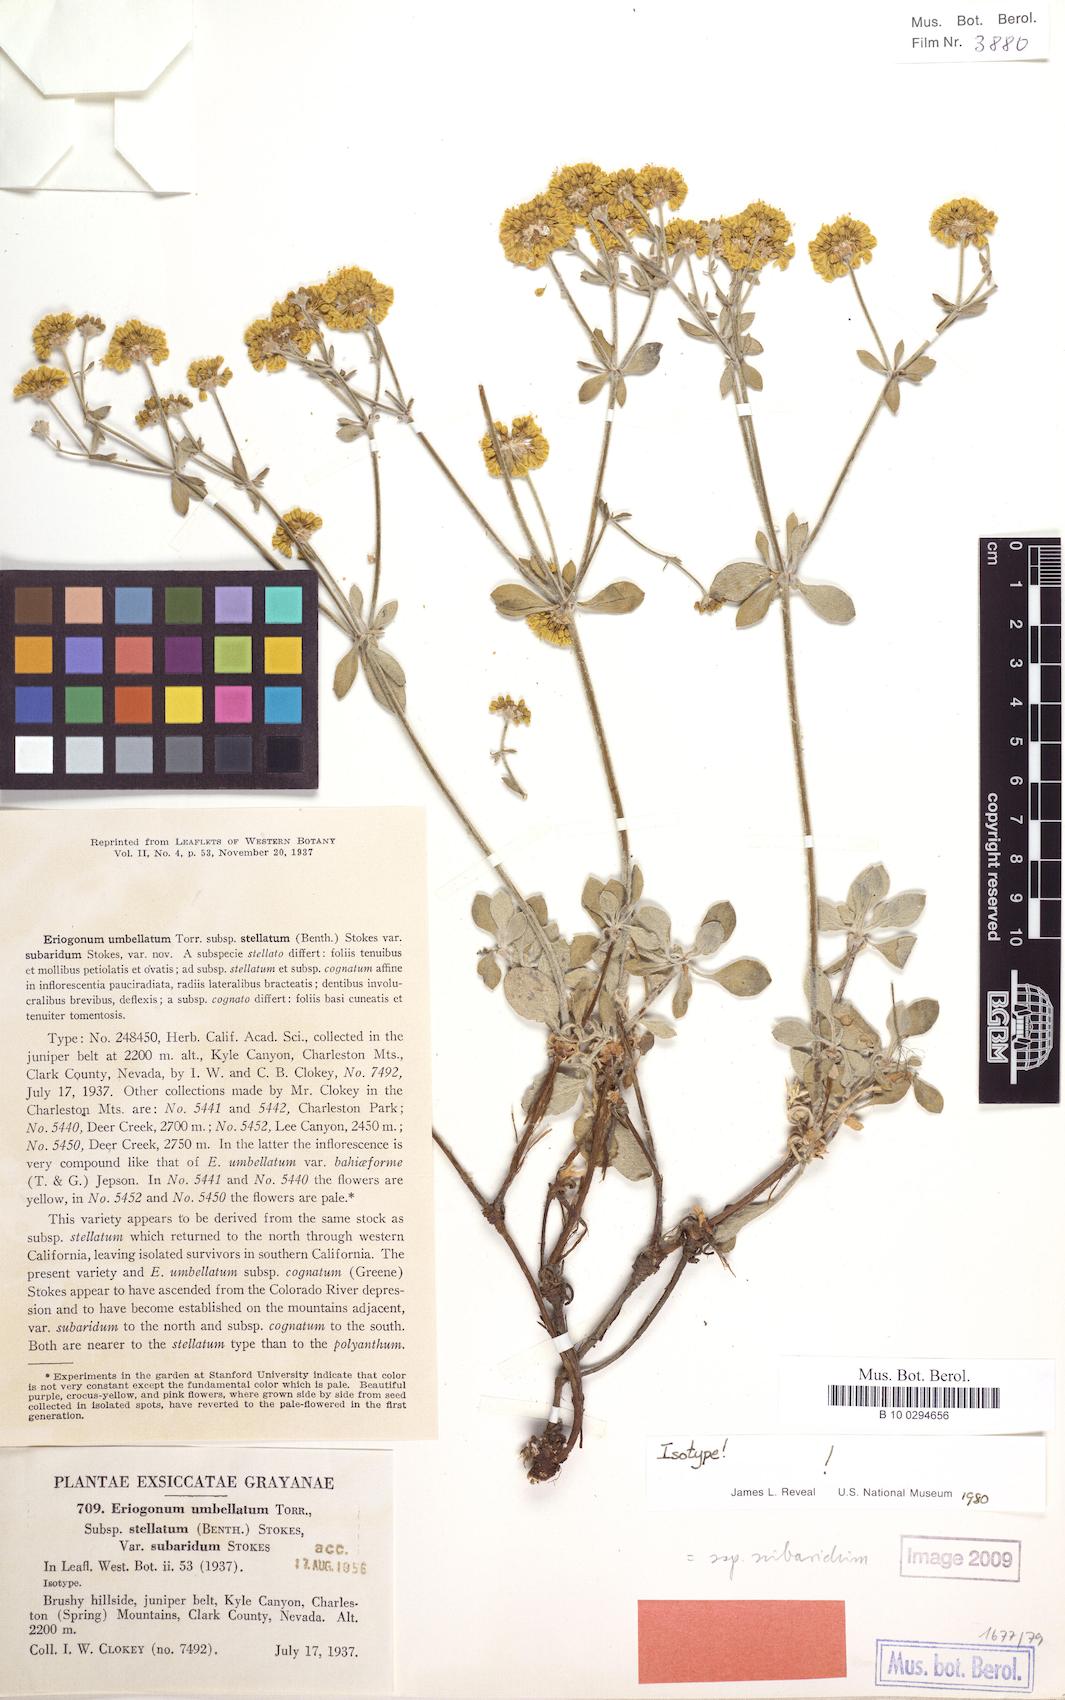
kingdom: Plantae
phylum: Tracheophyta
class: Magnoliopsida
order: Caryophyllales
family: Polygonaceae
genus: Eriogonum
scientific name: Eriogonum umbellatum
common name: Sulfur-buckwheat
